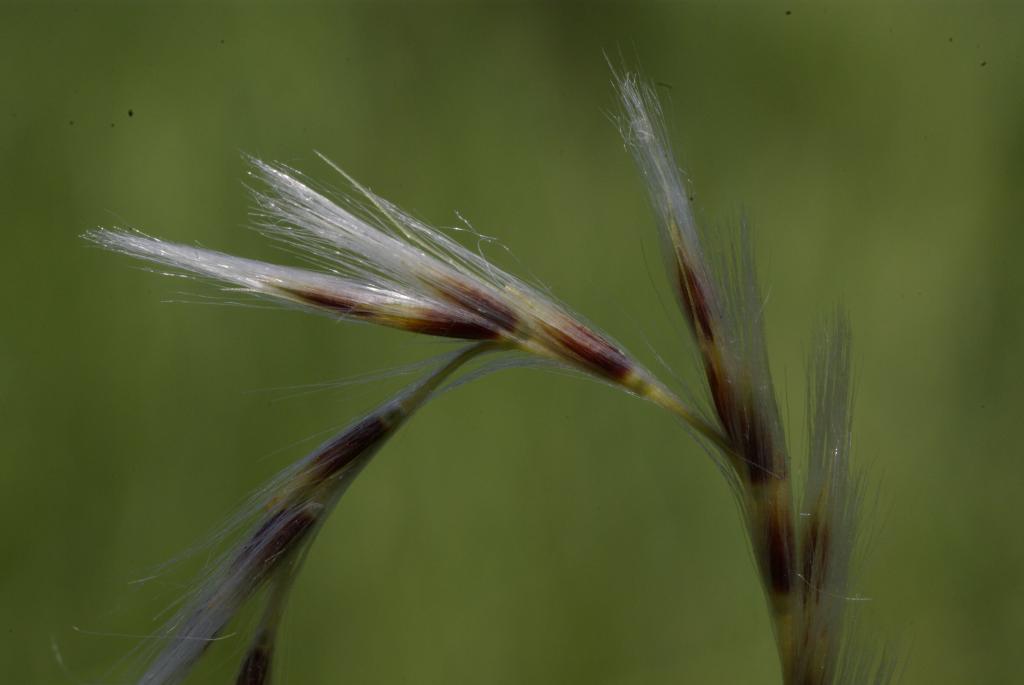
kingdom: Plantae
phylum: Tracheophyta
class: Liliopsida
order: Poales
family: Poaceae
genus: Saccharum
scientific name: Saccharum formosanum
